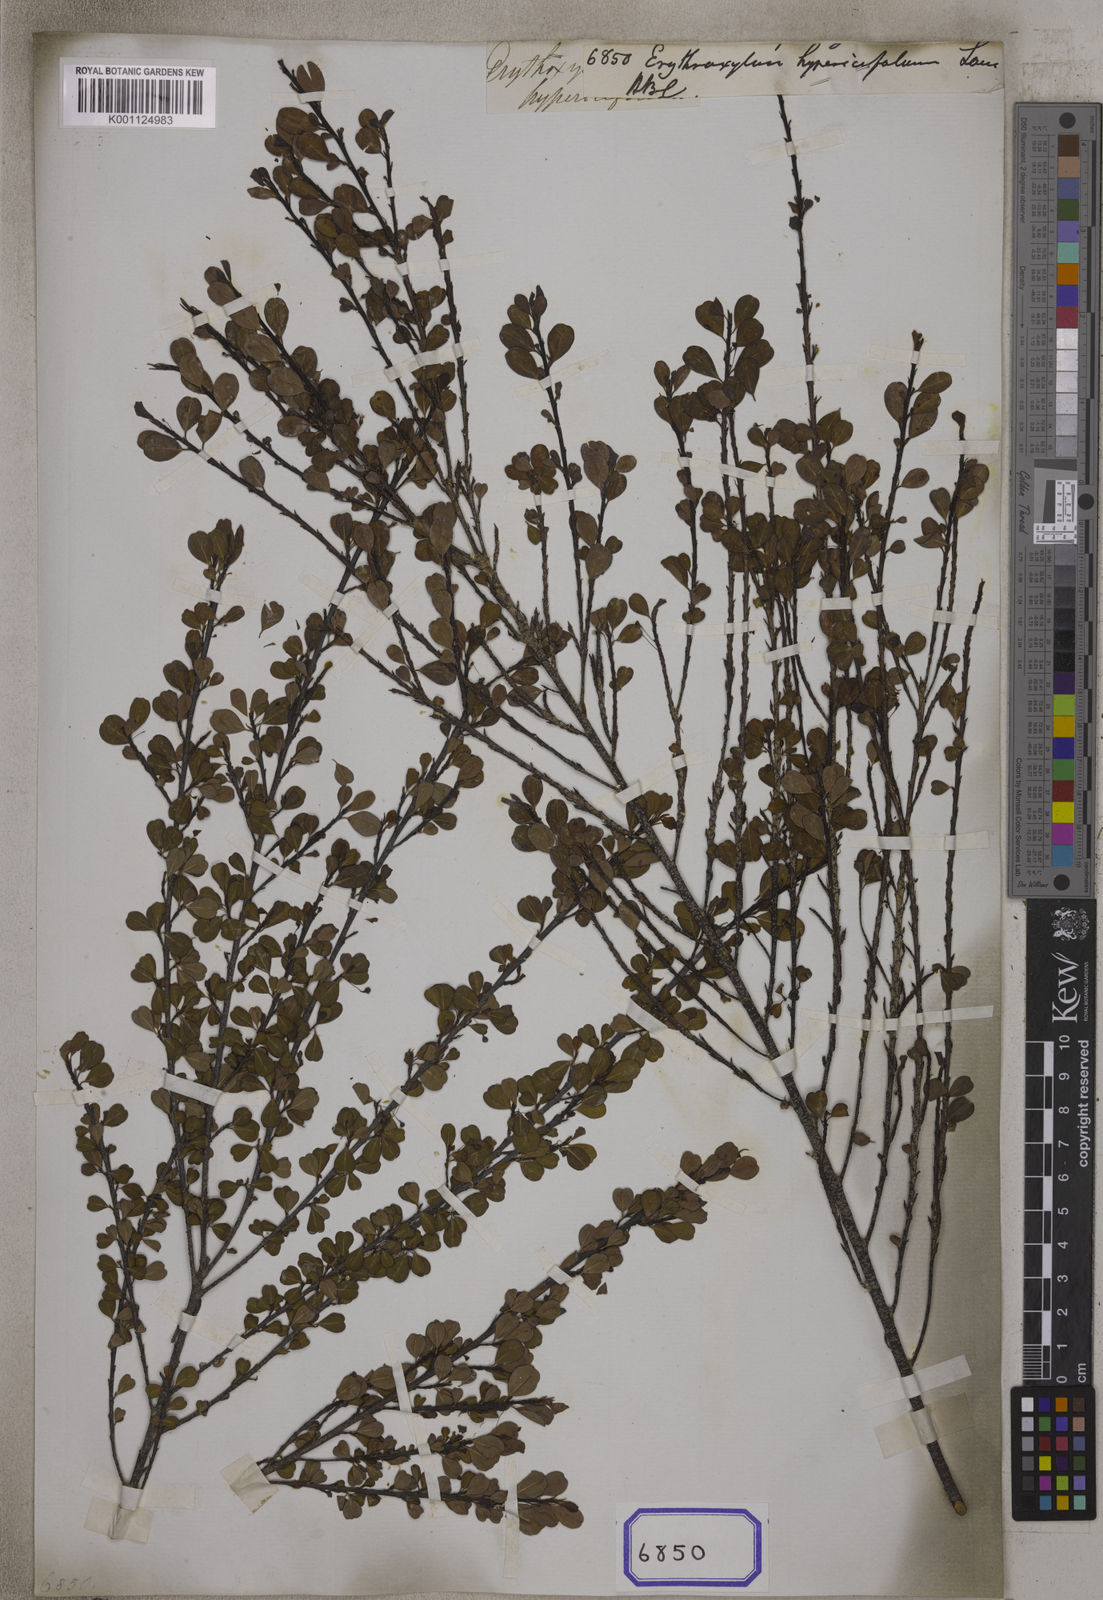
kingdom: Plantae
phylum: Tracheophyta
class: Magnoliopsida
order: Malpighiales
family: Erythroxylaceae
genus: Erythroxylum
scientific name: Erythroxylum hypericifolium
